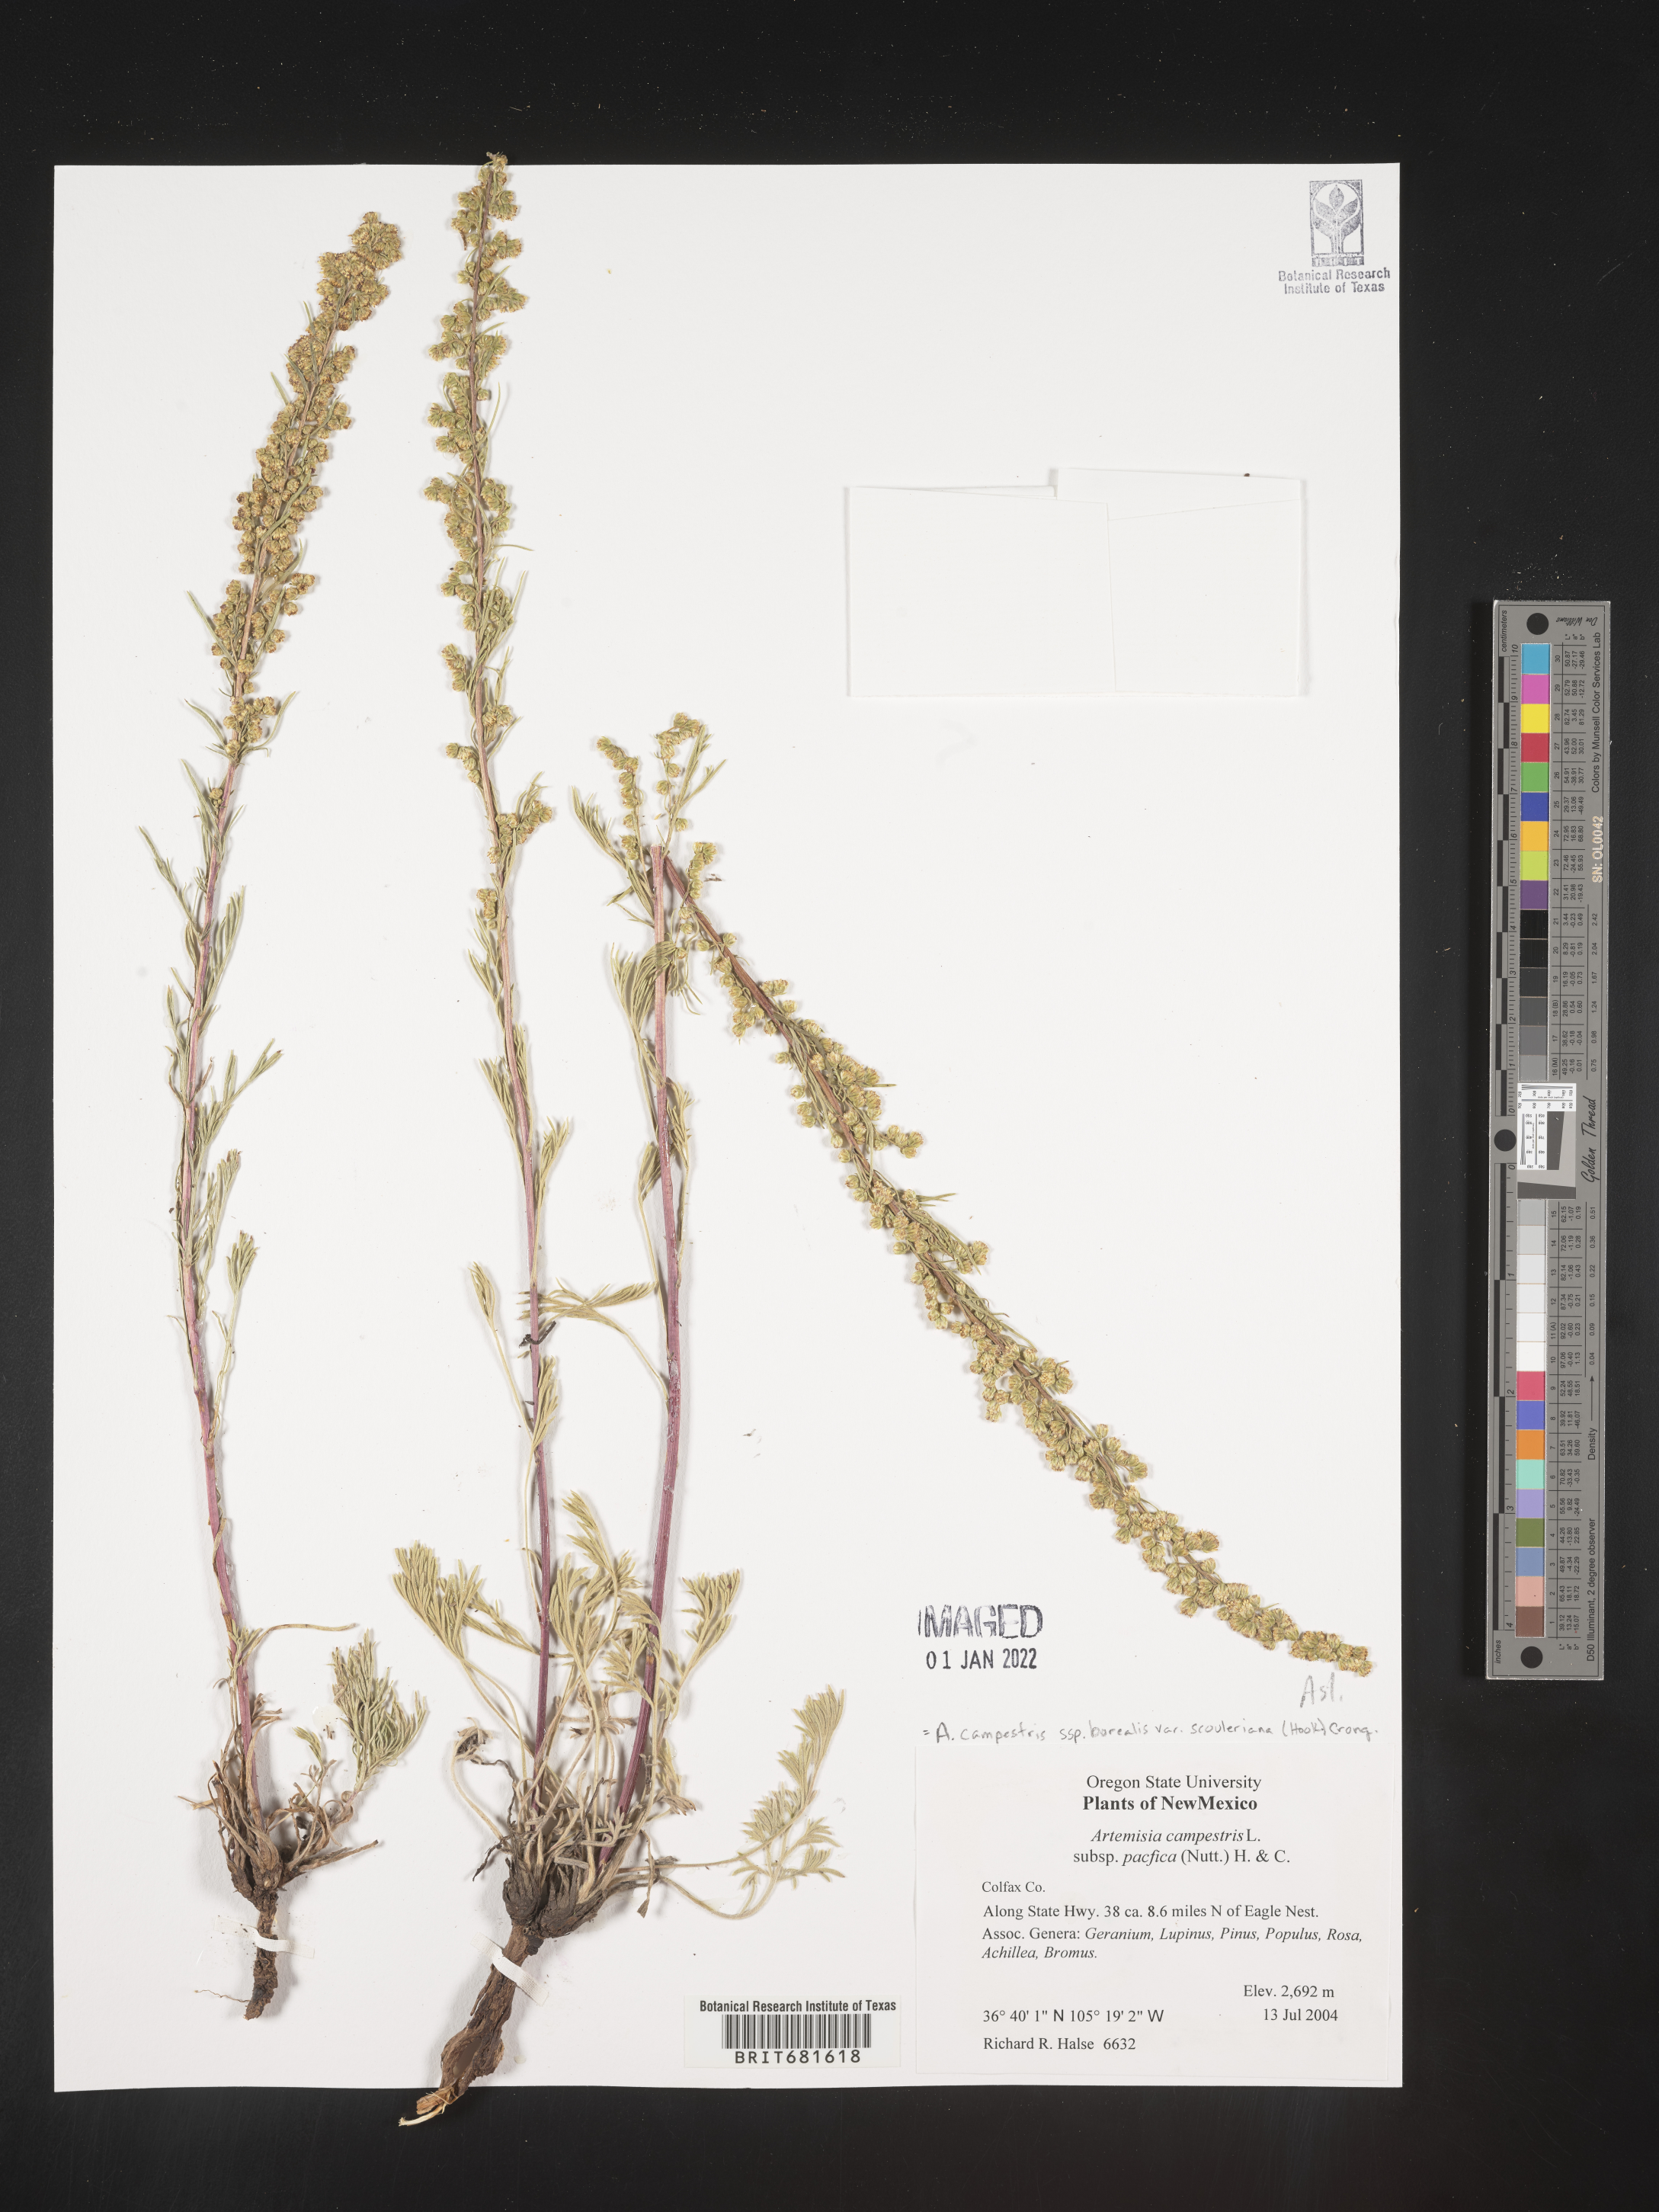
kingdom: Plantae
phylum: Tracheophyta
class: Magnoliopsida
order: Asterales
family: Asteraceae
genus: Artemisia
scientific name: Artemisia campestris
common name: Field wormwood
